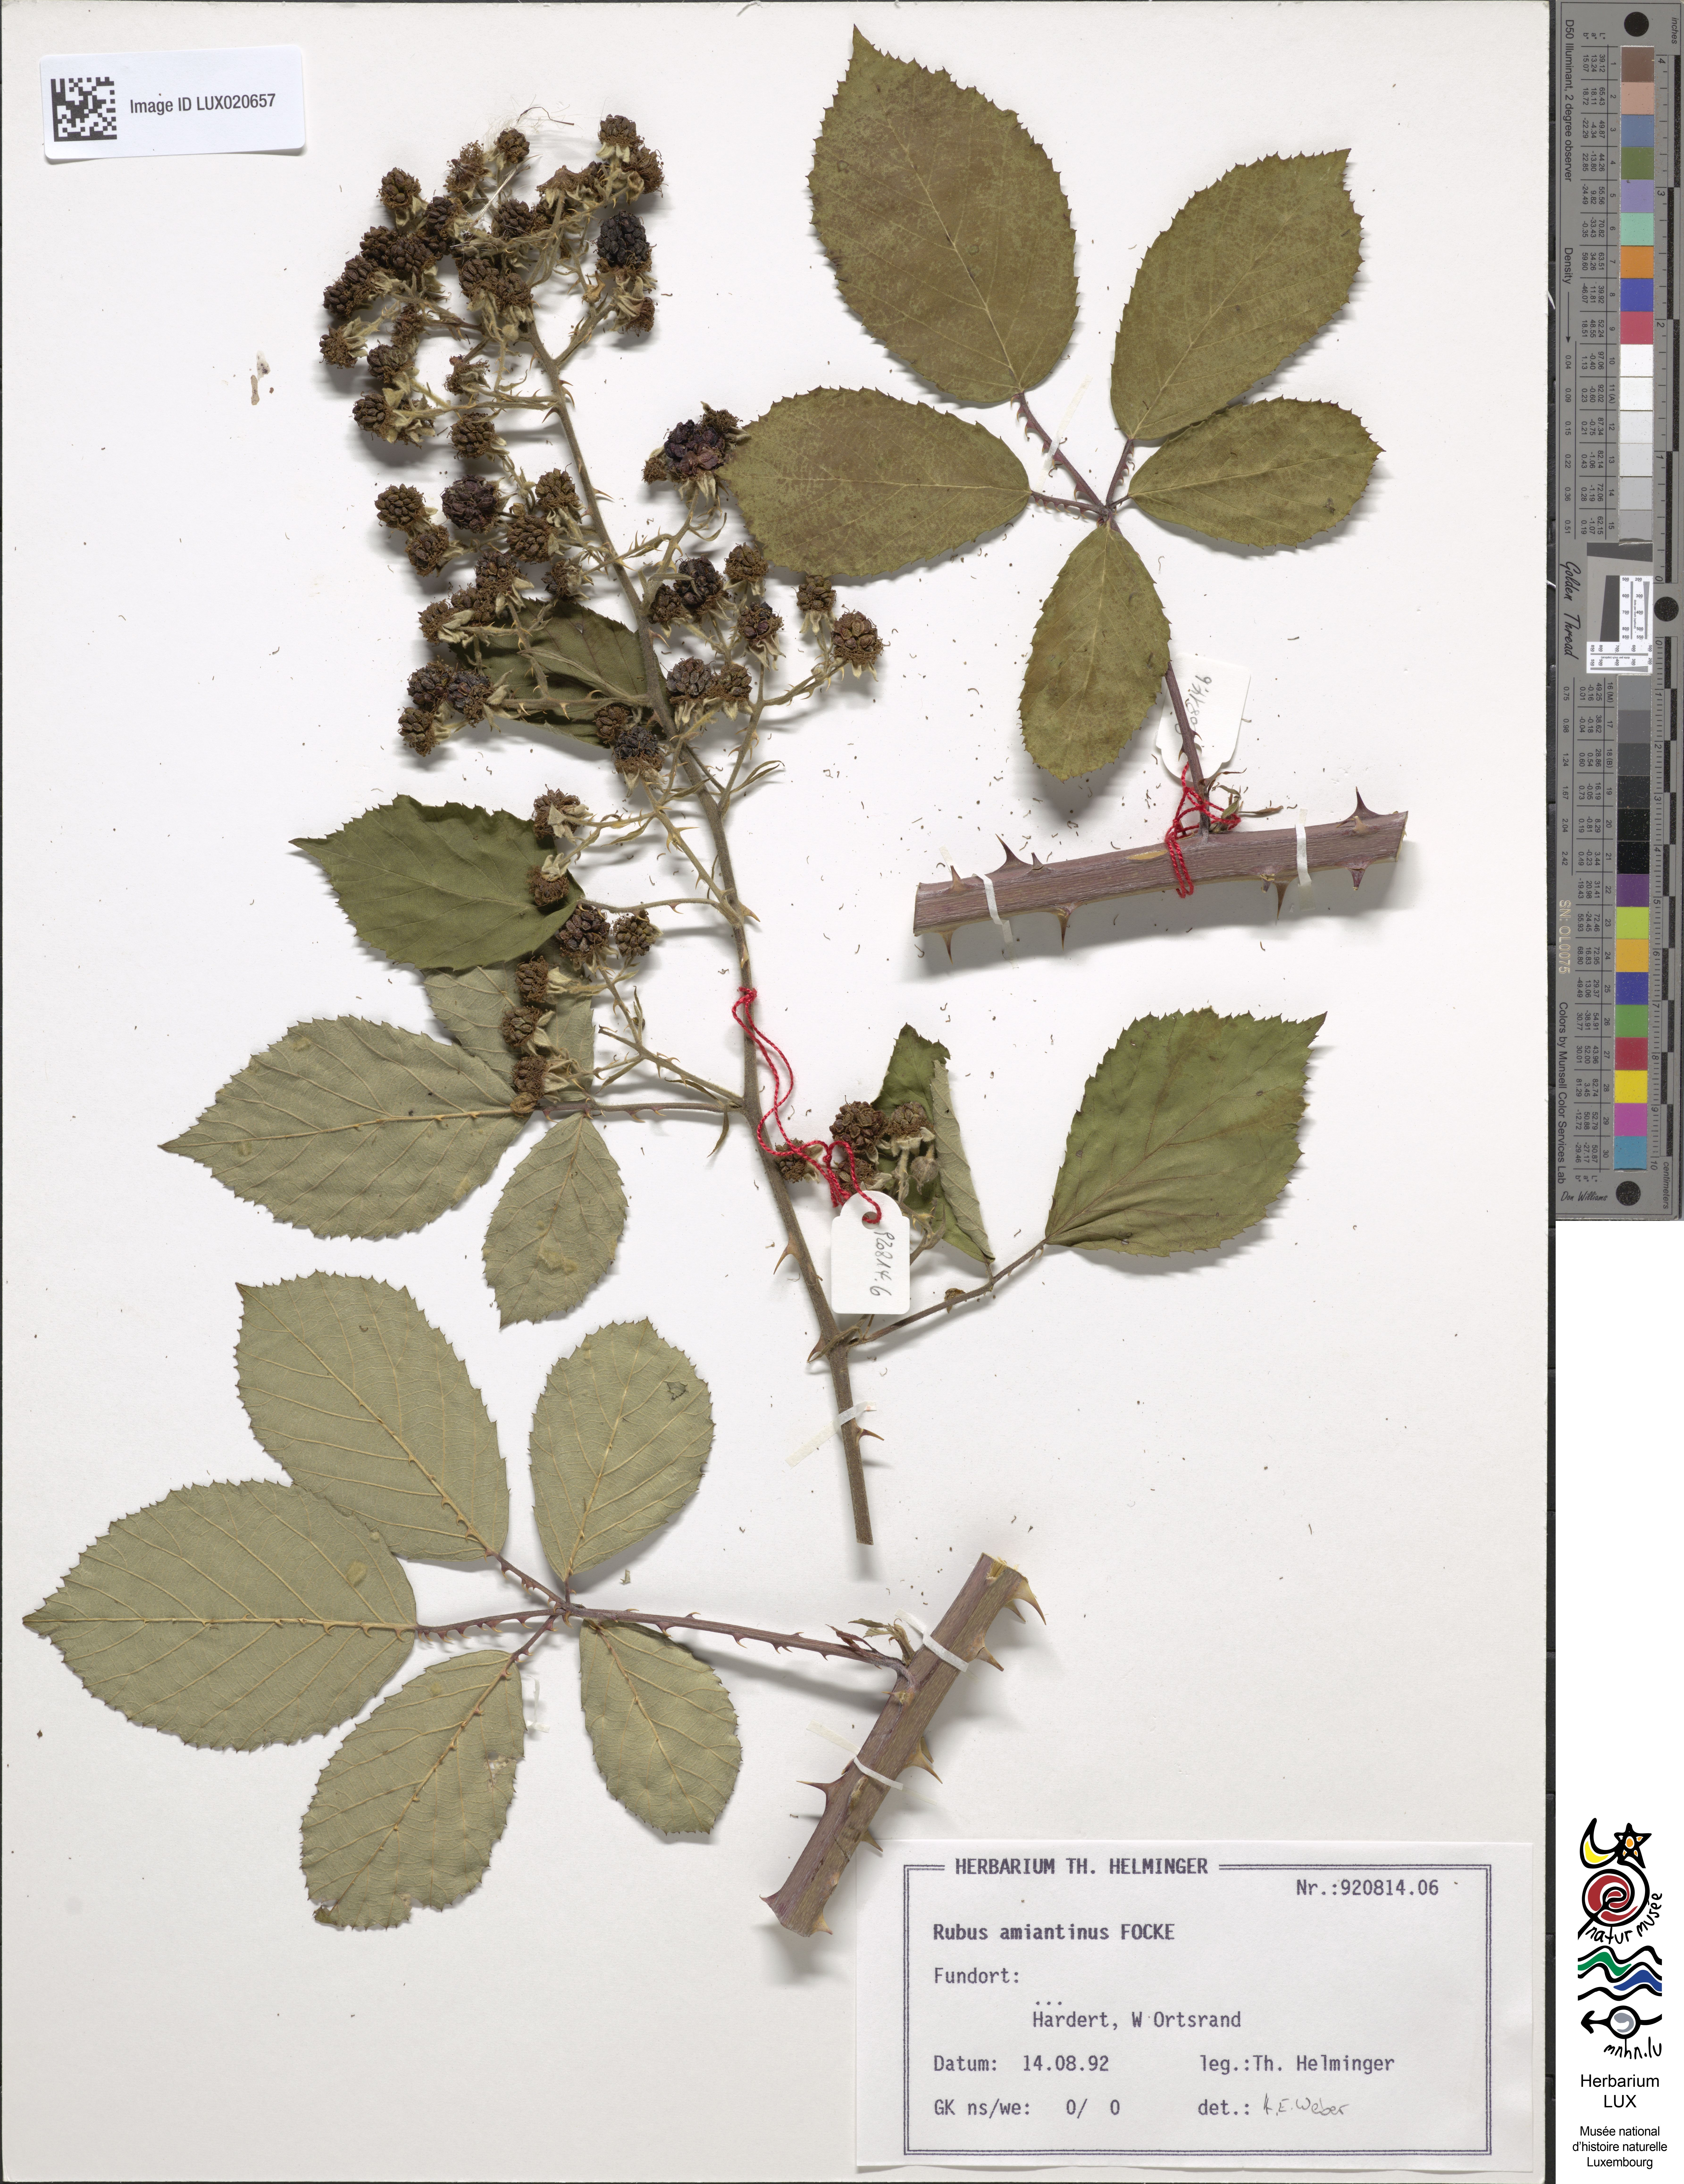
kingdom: Plantae
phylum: Tracheophyta
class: Magnoliopsida
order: Rosales
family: Rosaceae
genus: Rubus
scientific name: Rubus amiantinus
